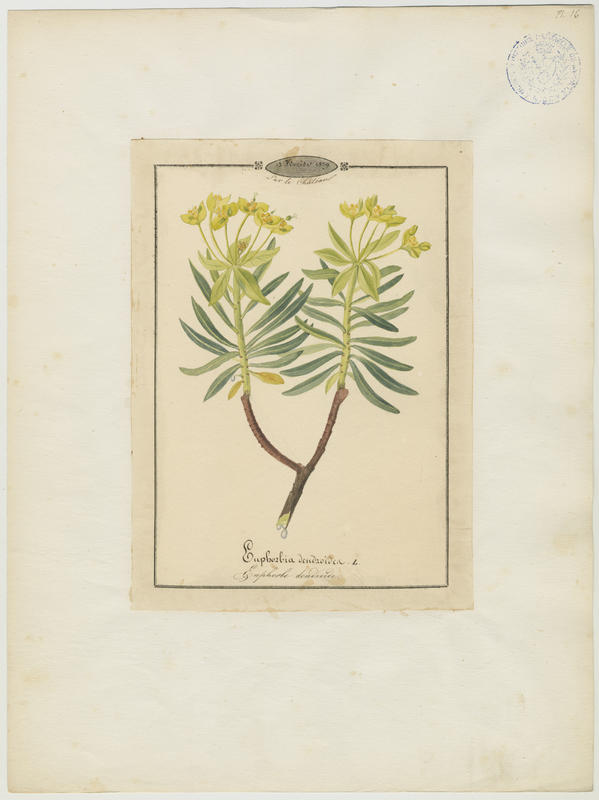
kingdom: Plantae
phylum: Tracheophyta
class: Magnoliopsida
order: Malpighiales
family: Euphorbiaceae
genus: Euphorbia
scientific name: Euphorbia dendroides
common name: Tree spurge
